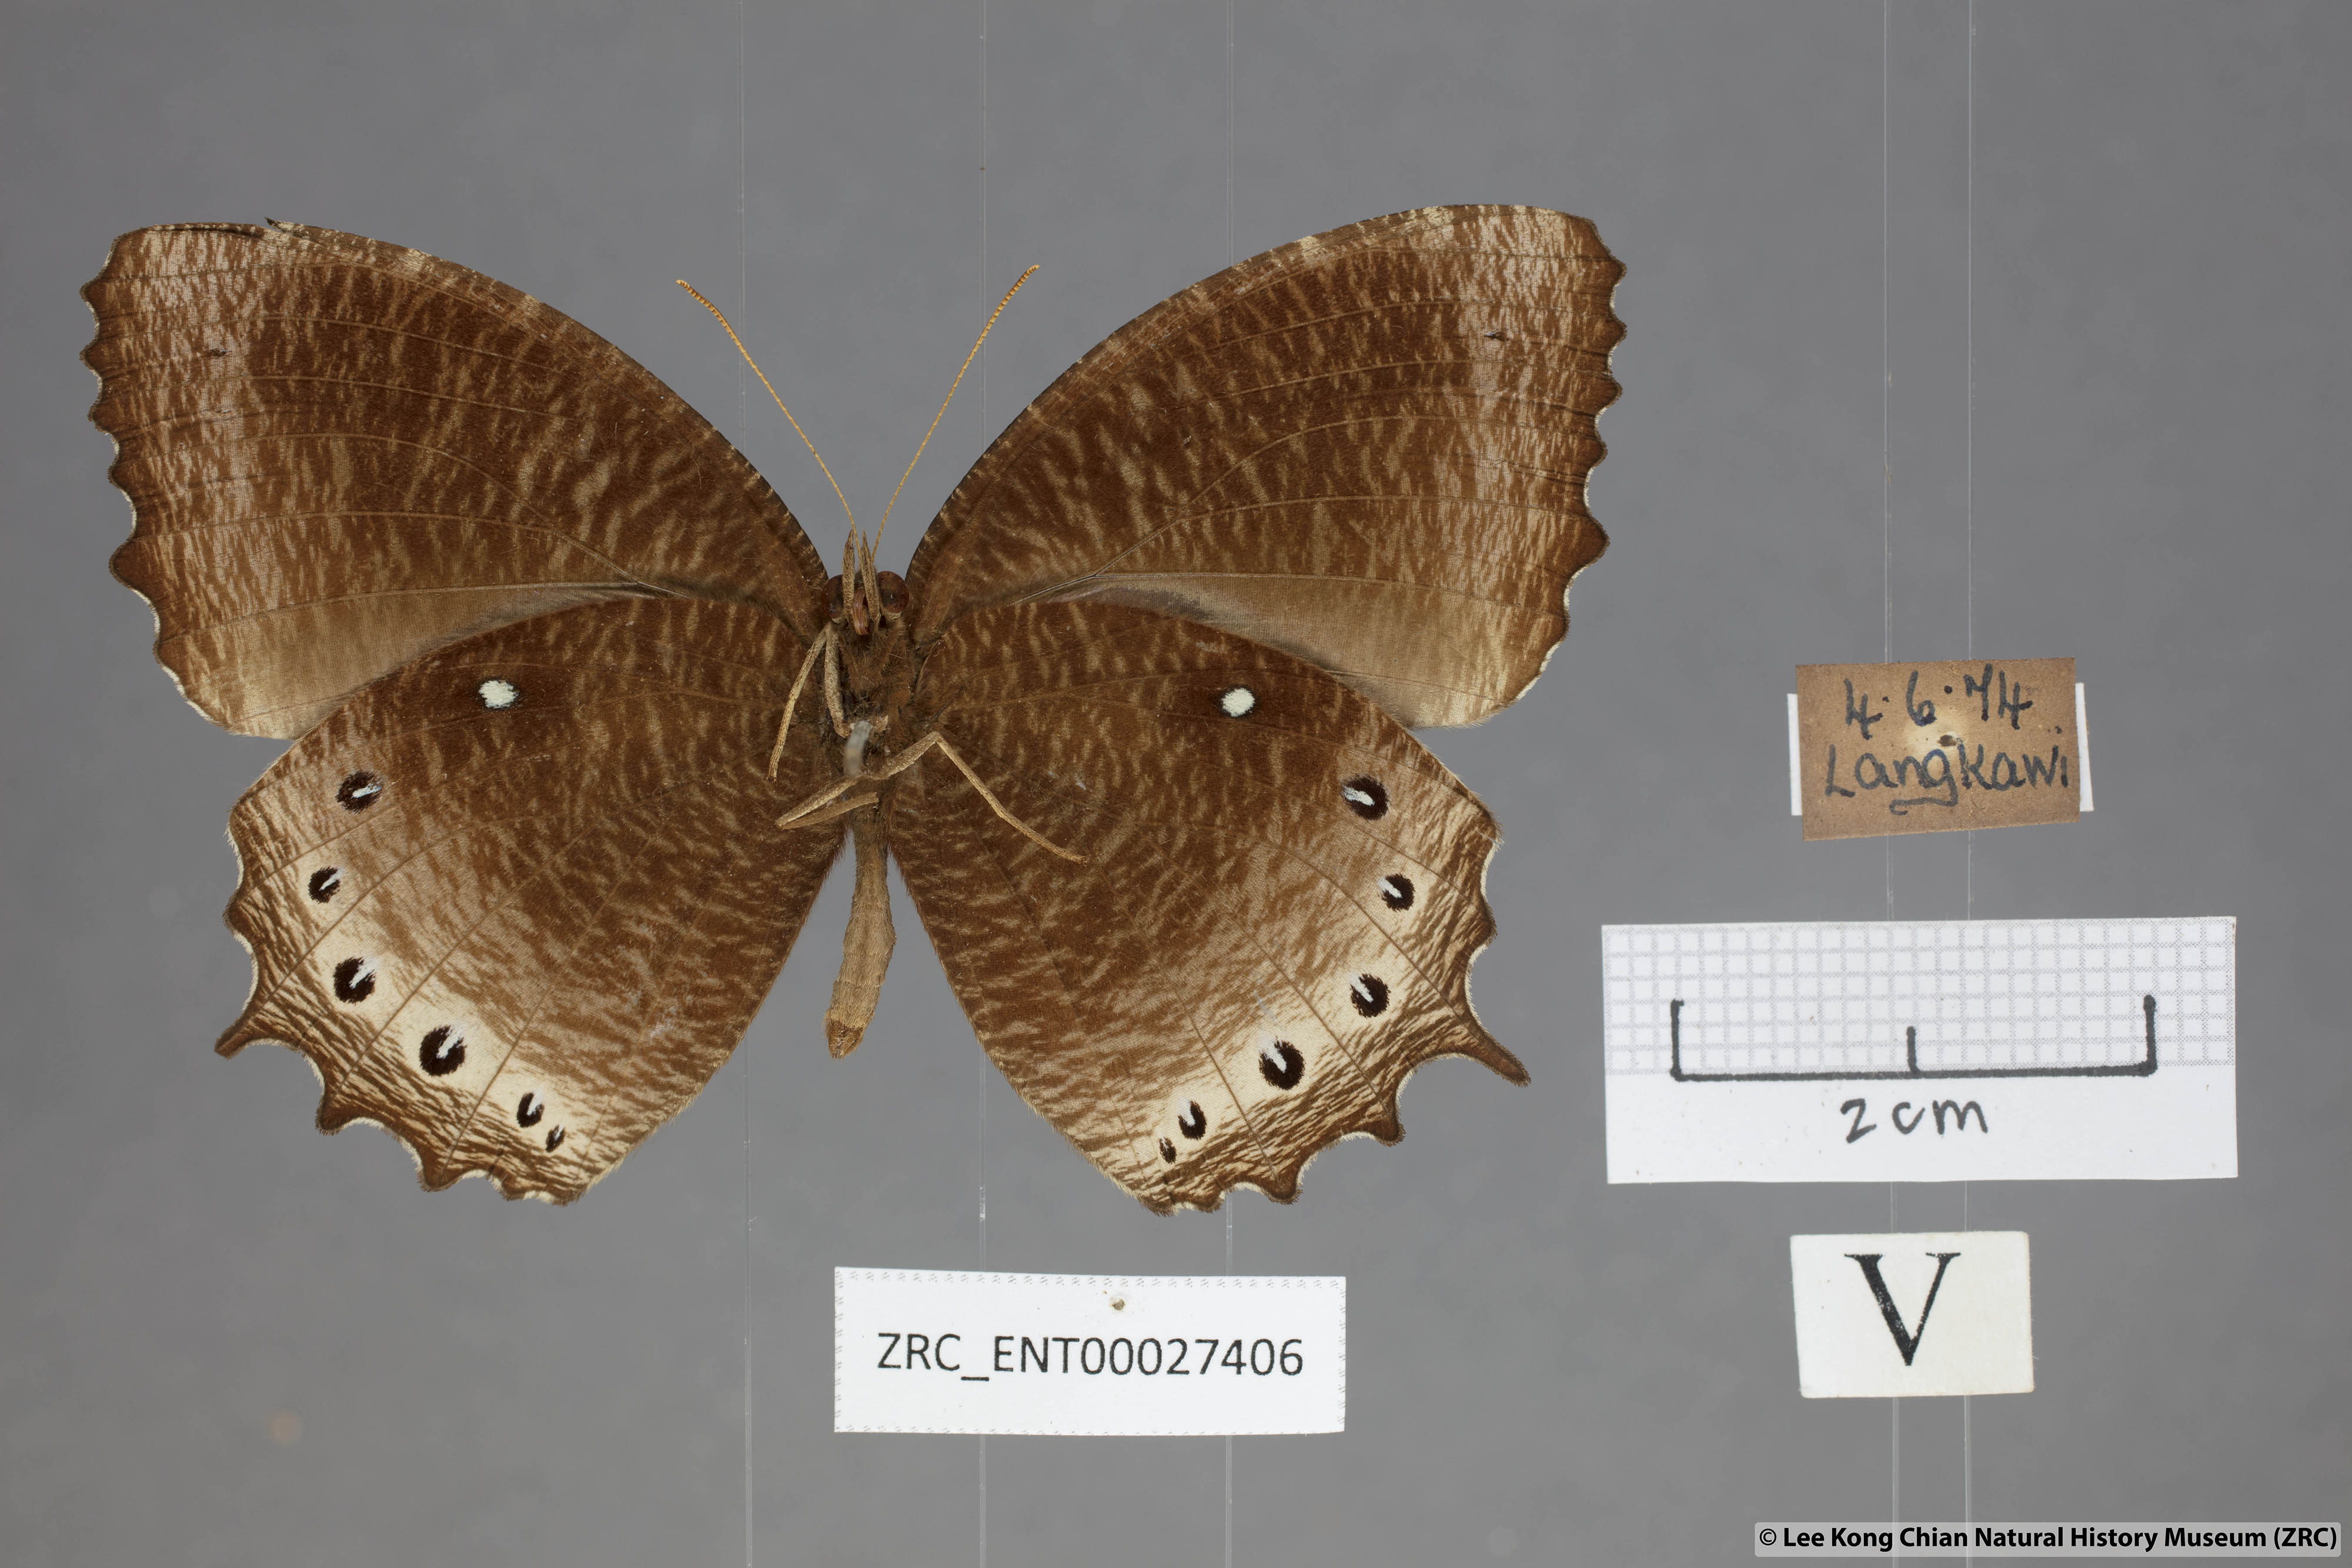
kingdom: Animalia
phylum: Arthropoda
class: Insecta
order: Lepidoptera
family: Nymphalidae
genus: Elymnias
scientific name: Elymnias panthera
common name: Tawny palmfly
